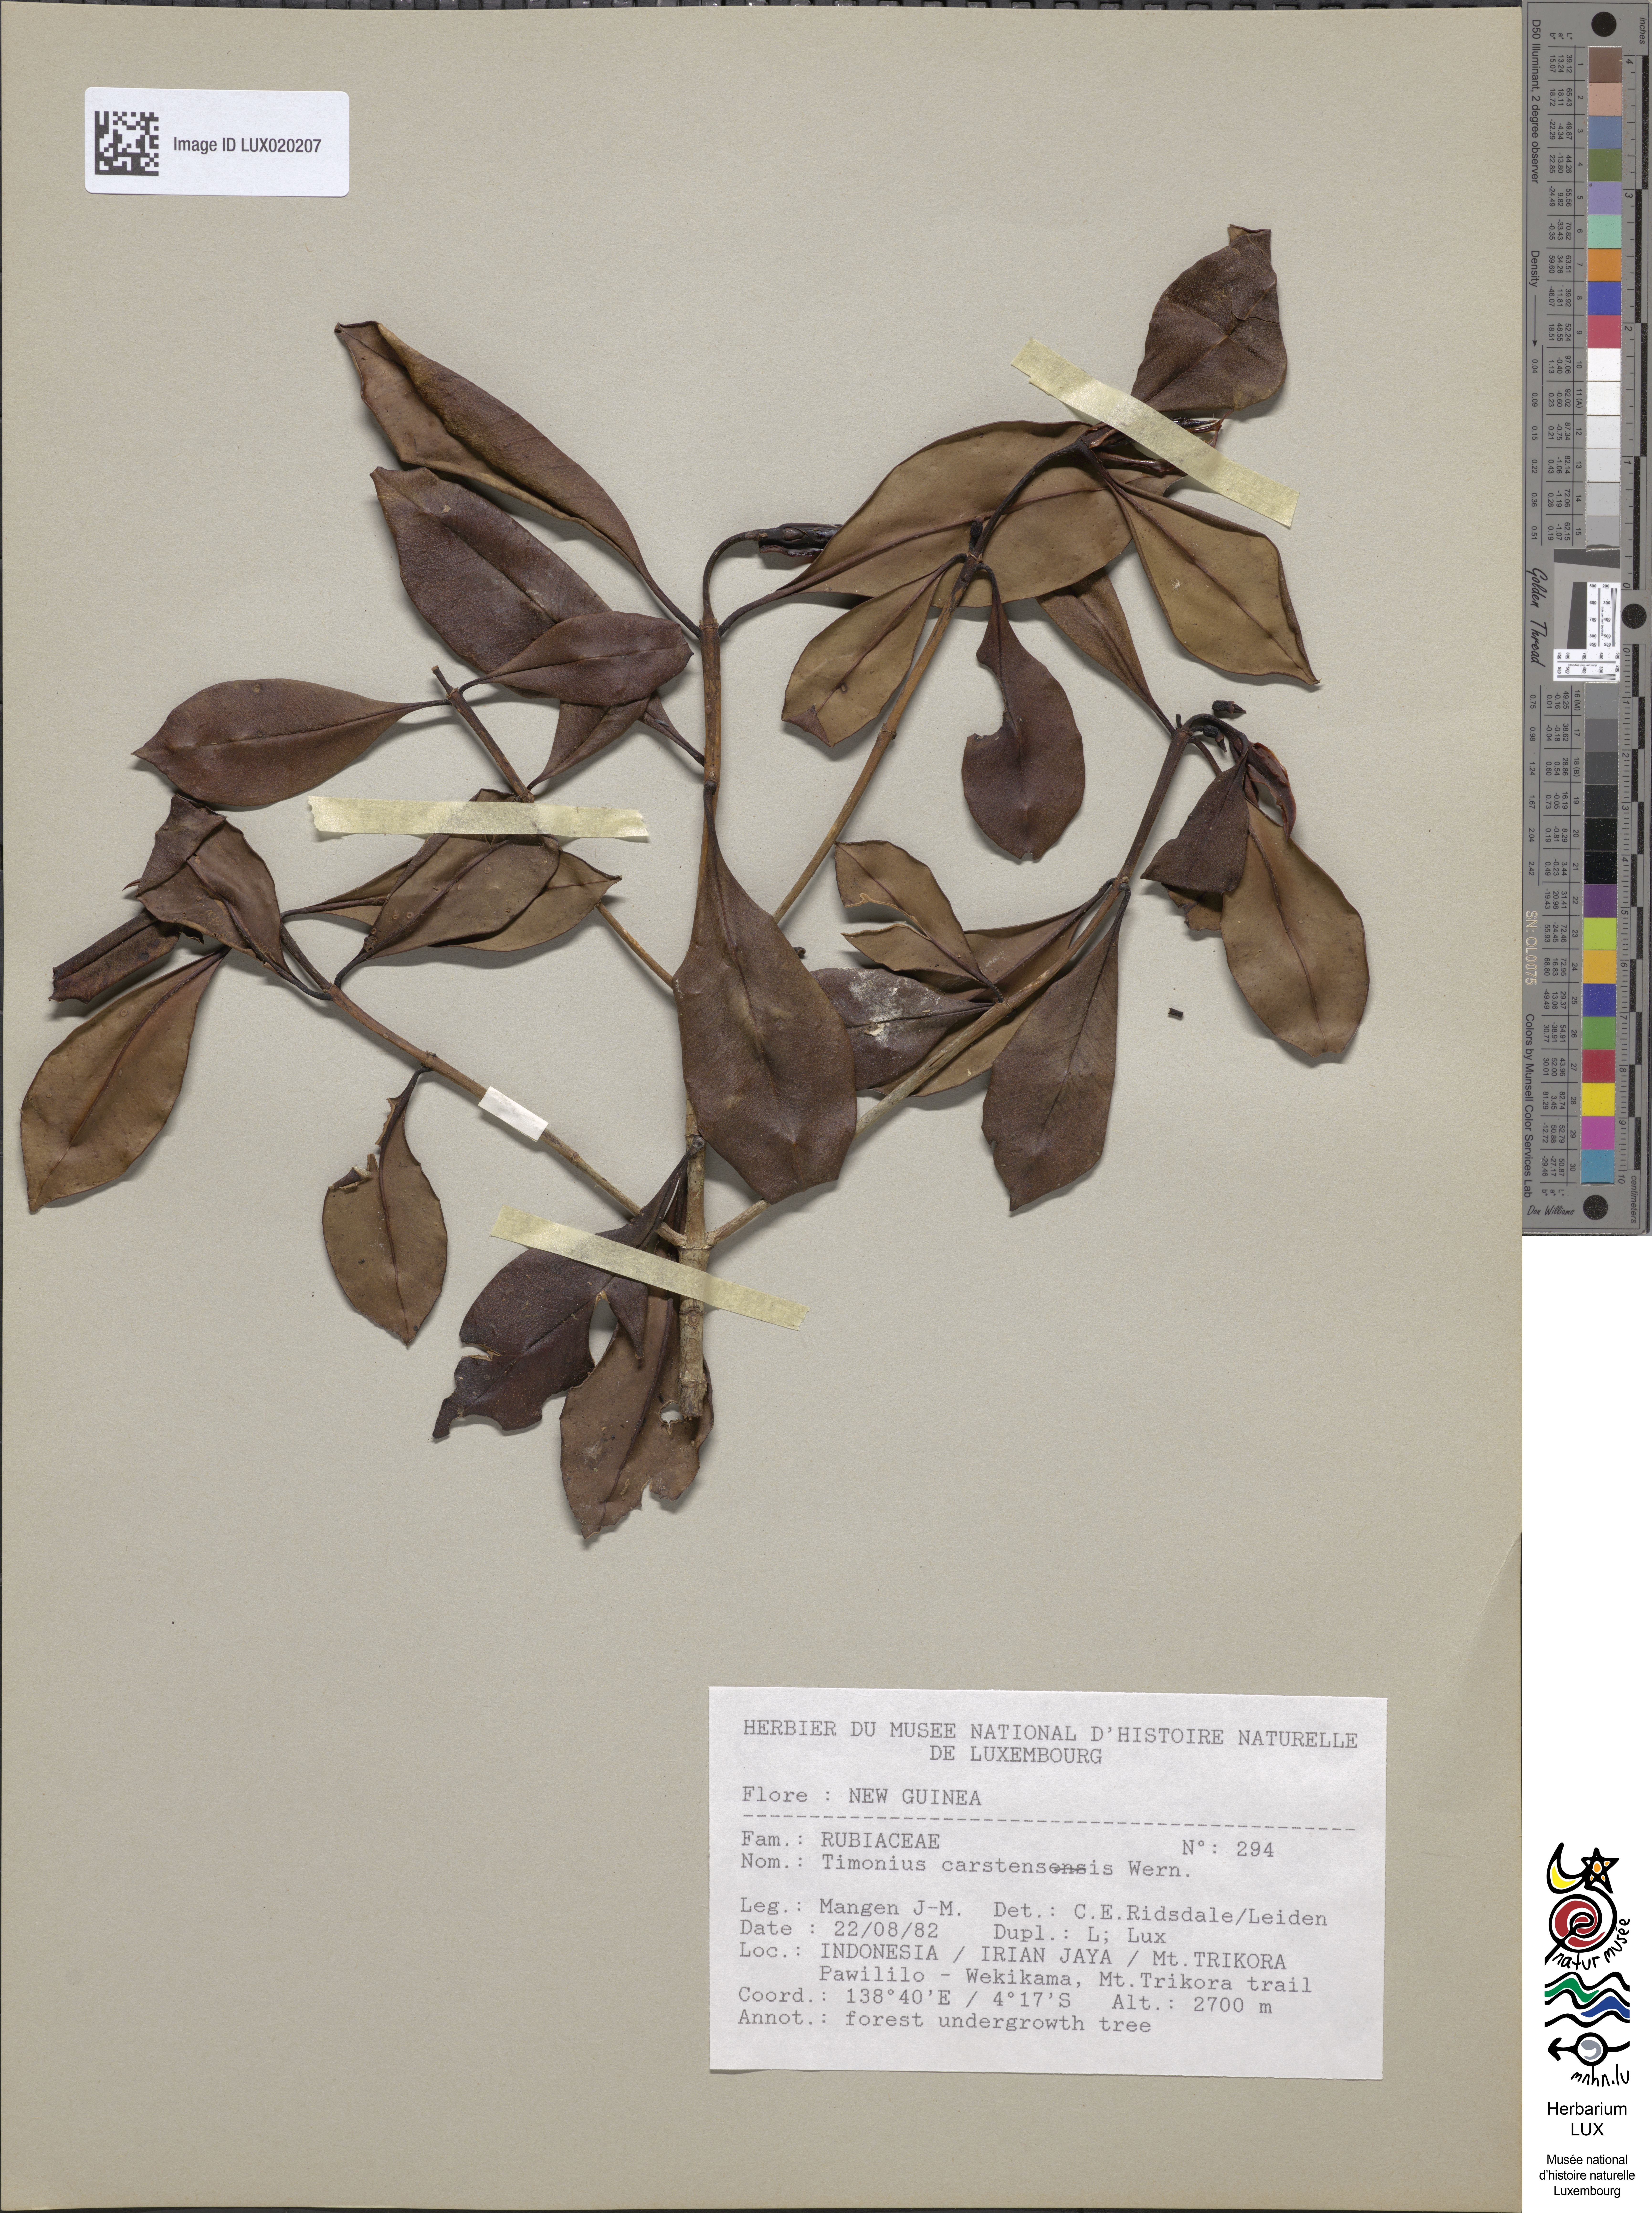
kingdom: Plantae
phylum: Tracheophyta
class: Magnoliopsida
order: Gentianales
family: Rubiaceae
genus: Timonius
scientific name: Timonius
